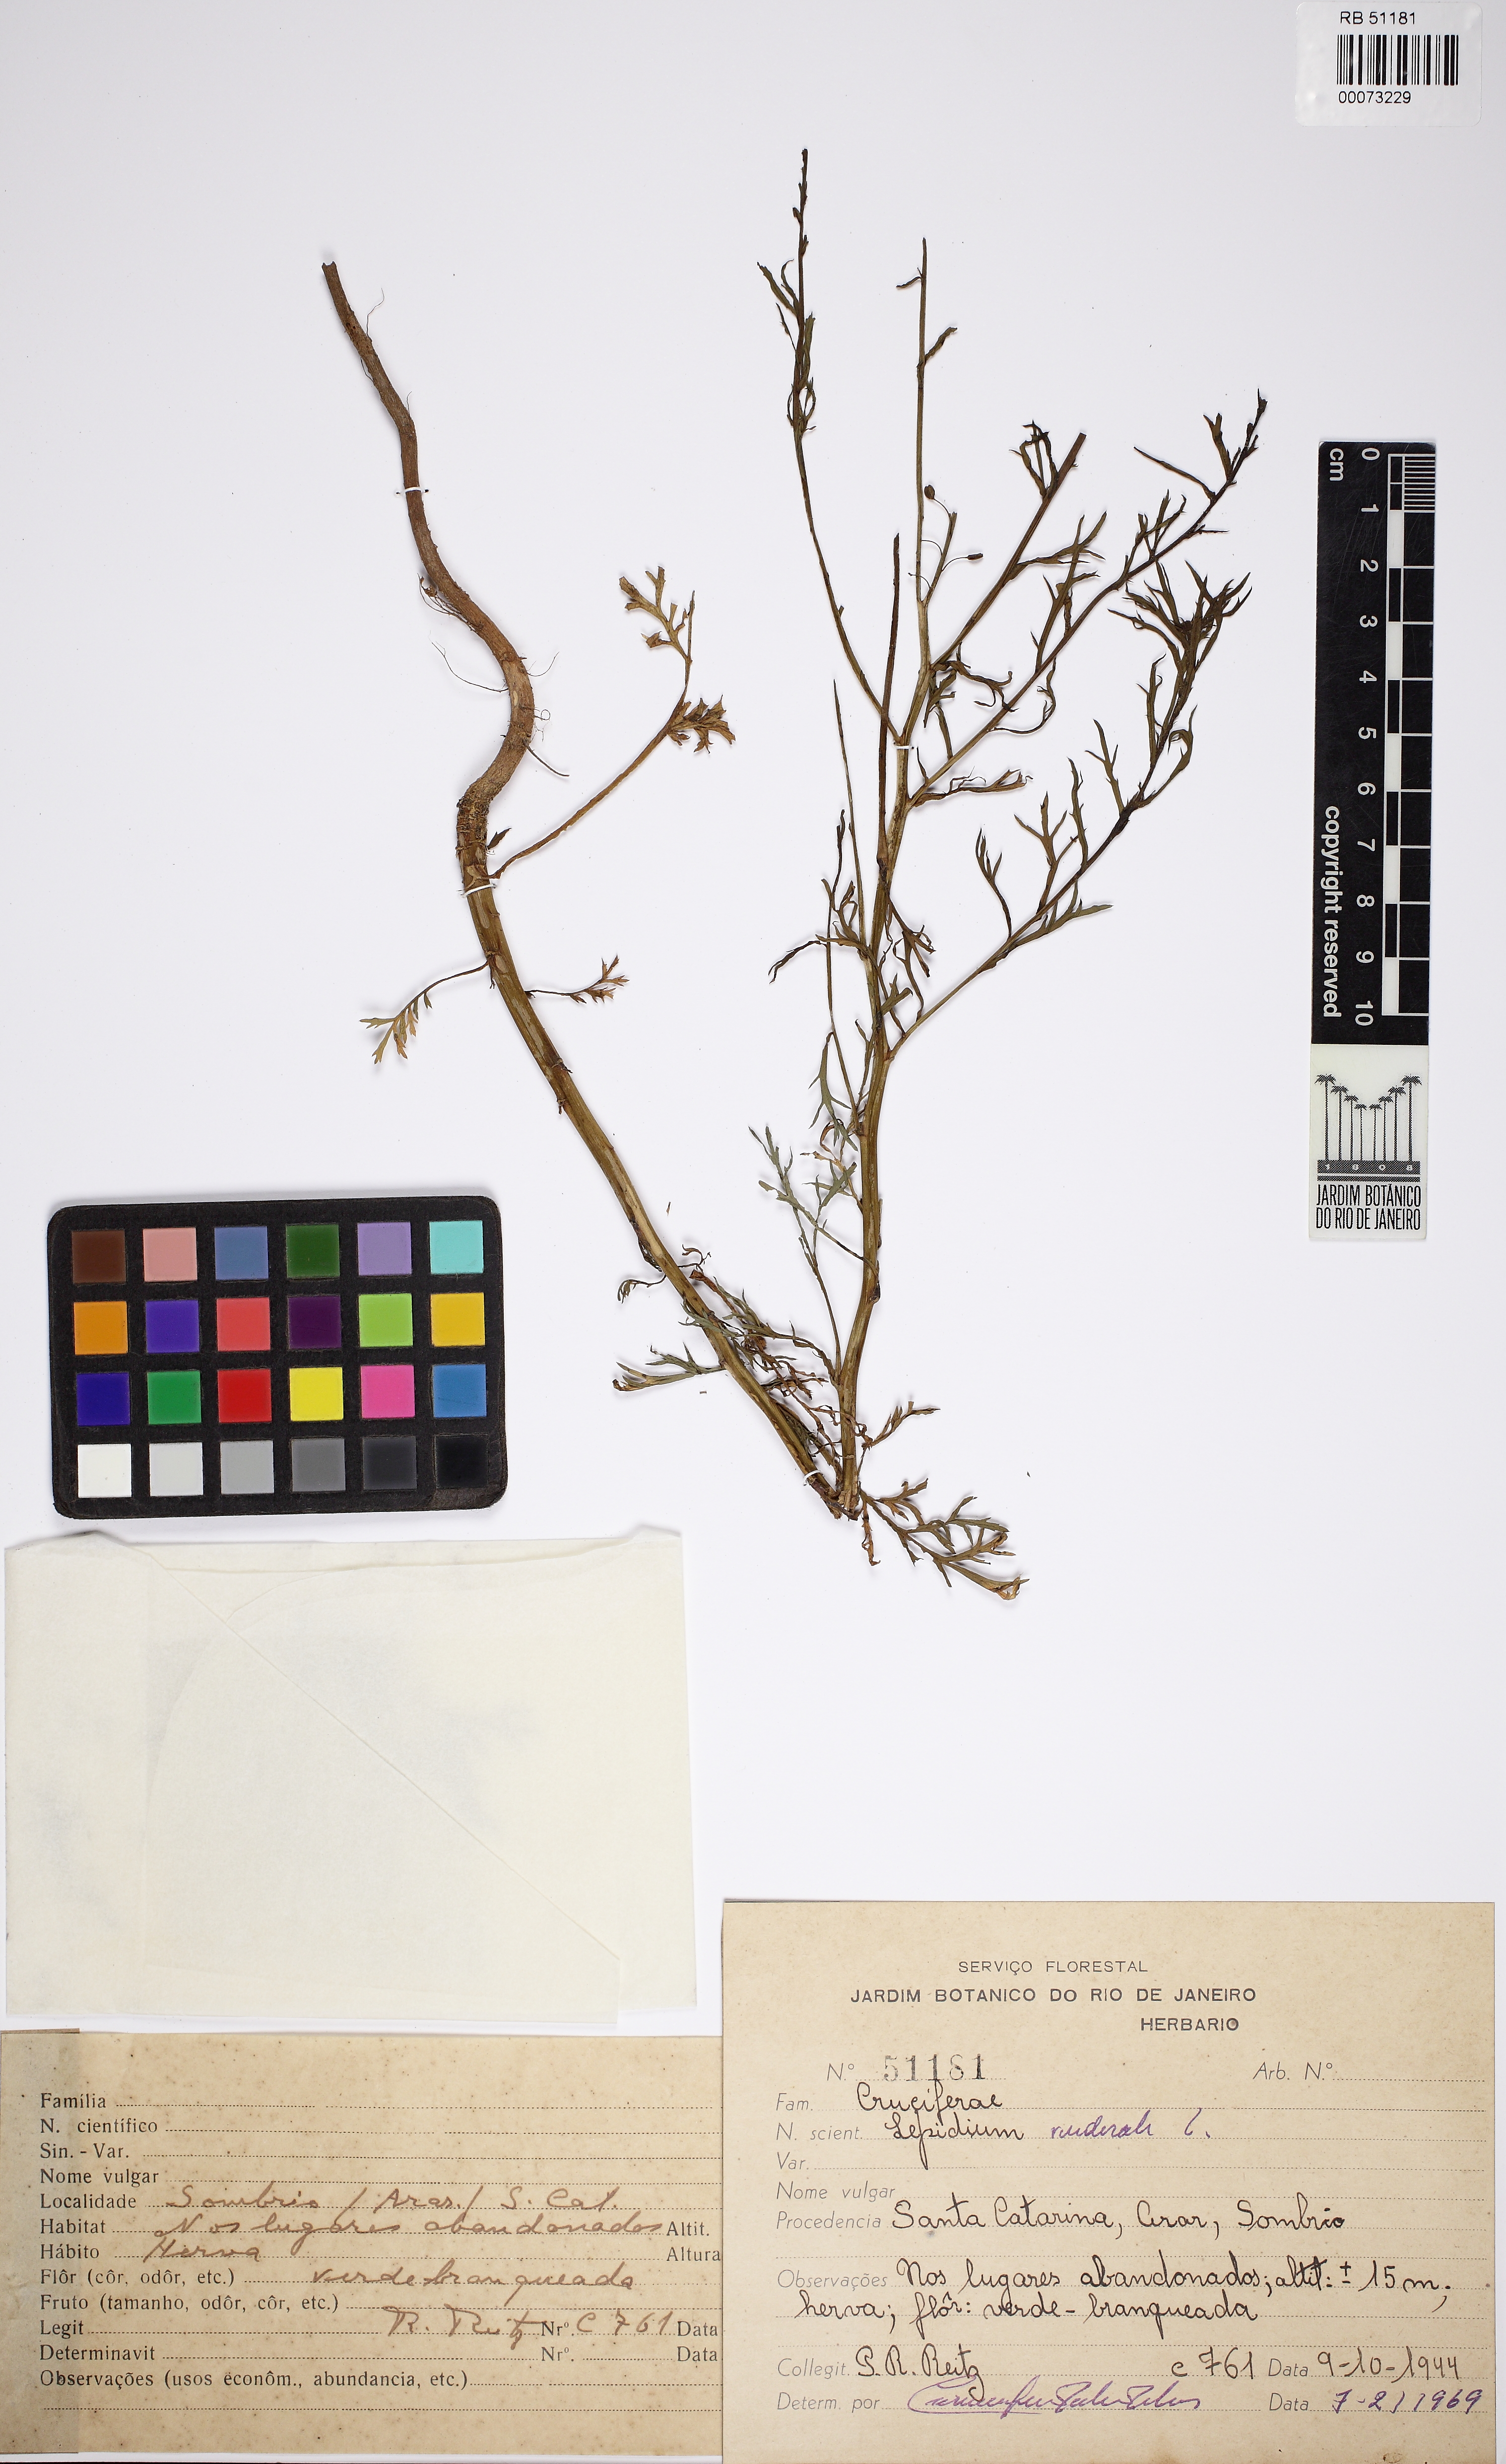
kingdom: Plantae
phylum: Tracheophyta
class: Magnoliopsida
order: Brassicales
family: Brassicaceae
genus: Lepidium
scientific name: Lepidium ruderale
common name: Narrow-leaved pepperwort
